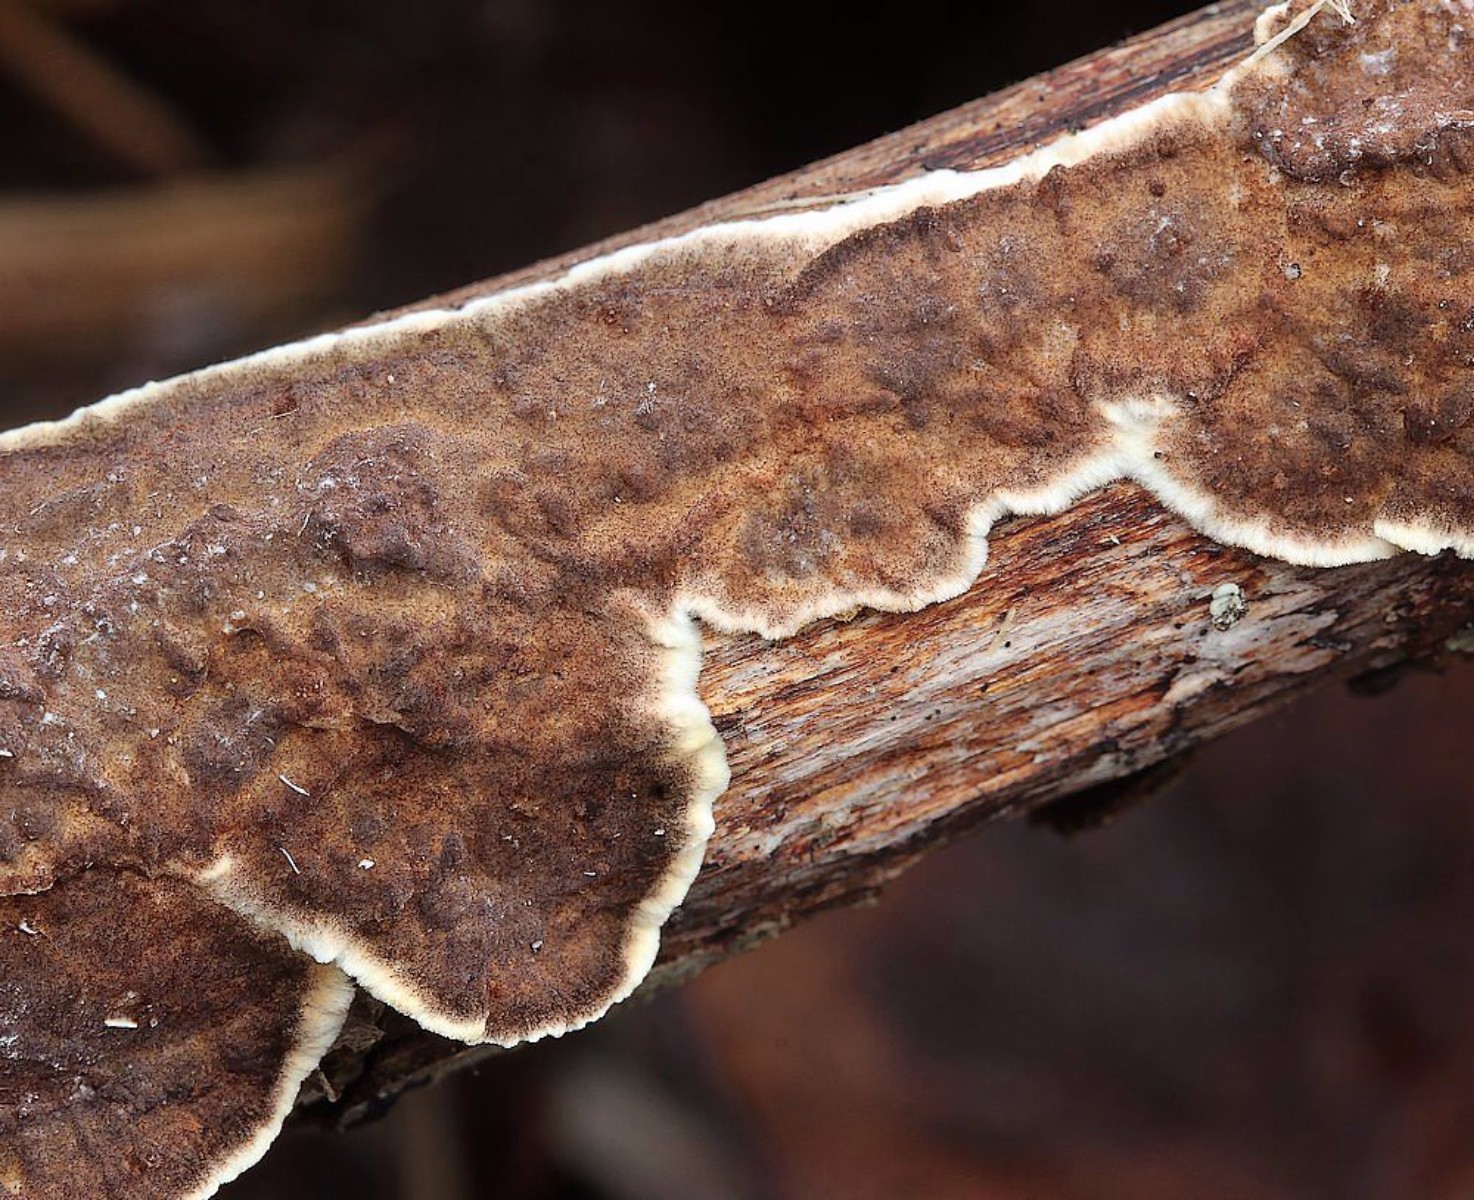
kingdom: Fungi
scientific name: Fungi
